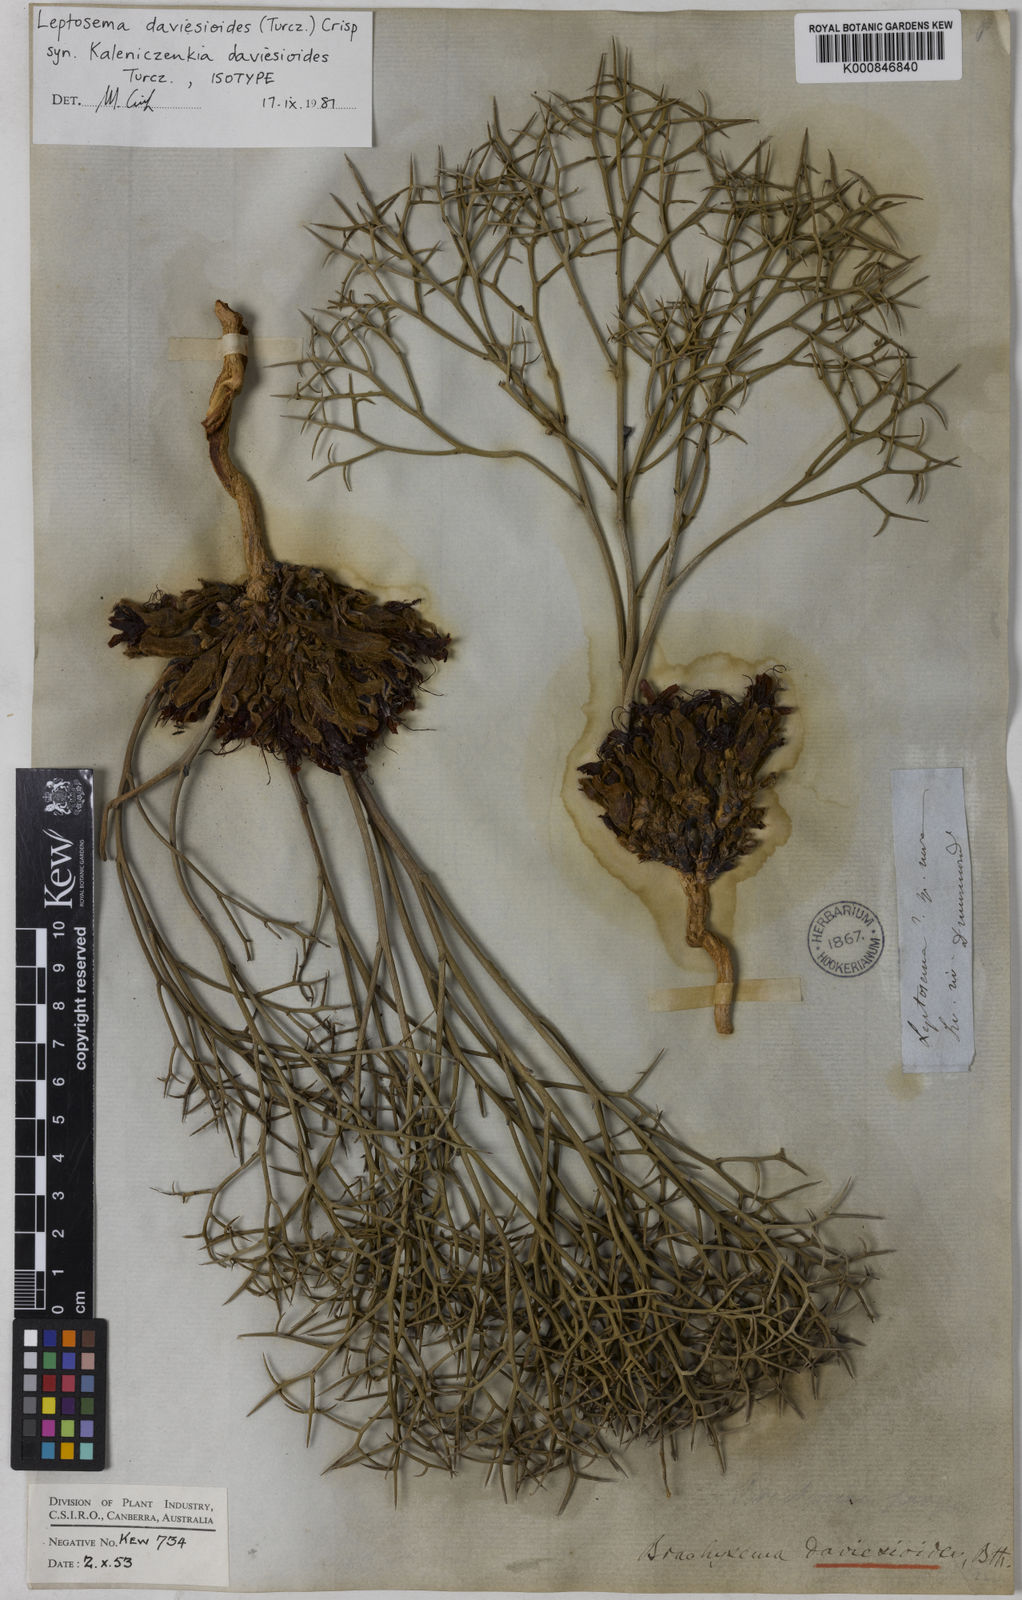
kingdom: Plantae
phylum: Tracheophyta
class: Magnoliopsida
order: Fabales
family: Fabaceae
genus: Leptosema
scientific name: Leptosema daviesioides
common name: Upside-down pea-bush
